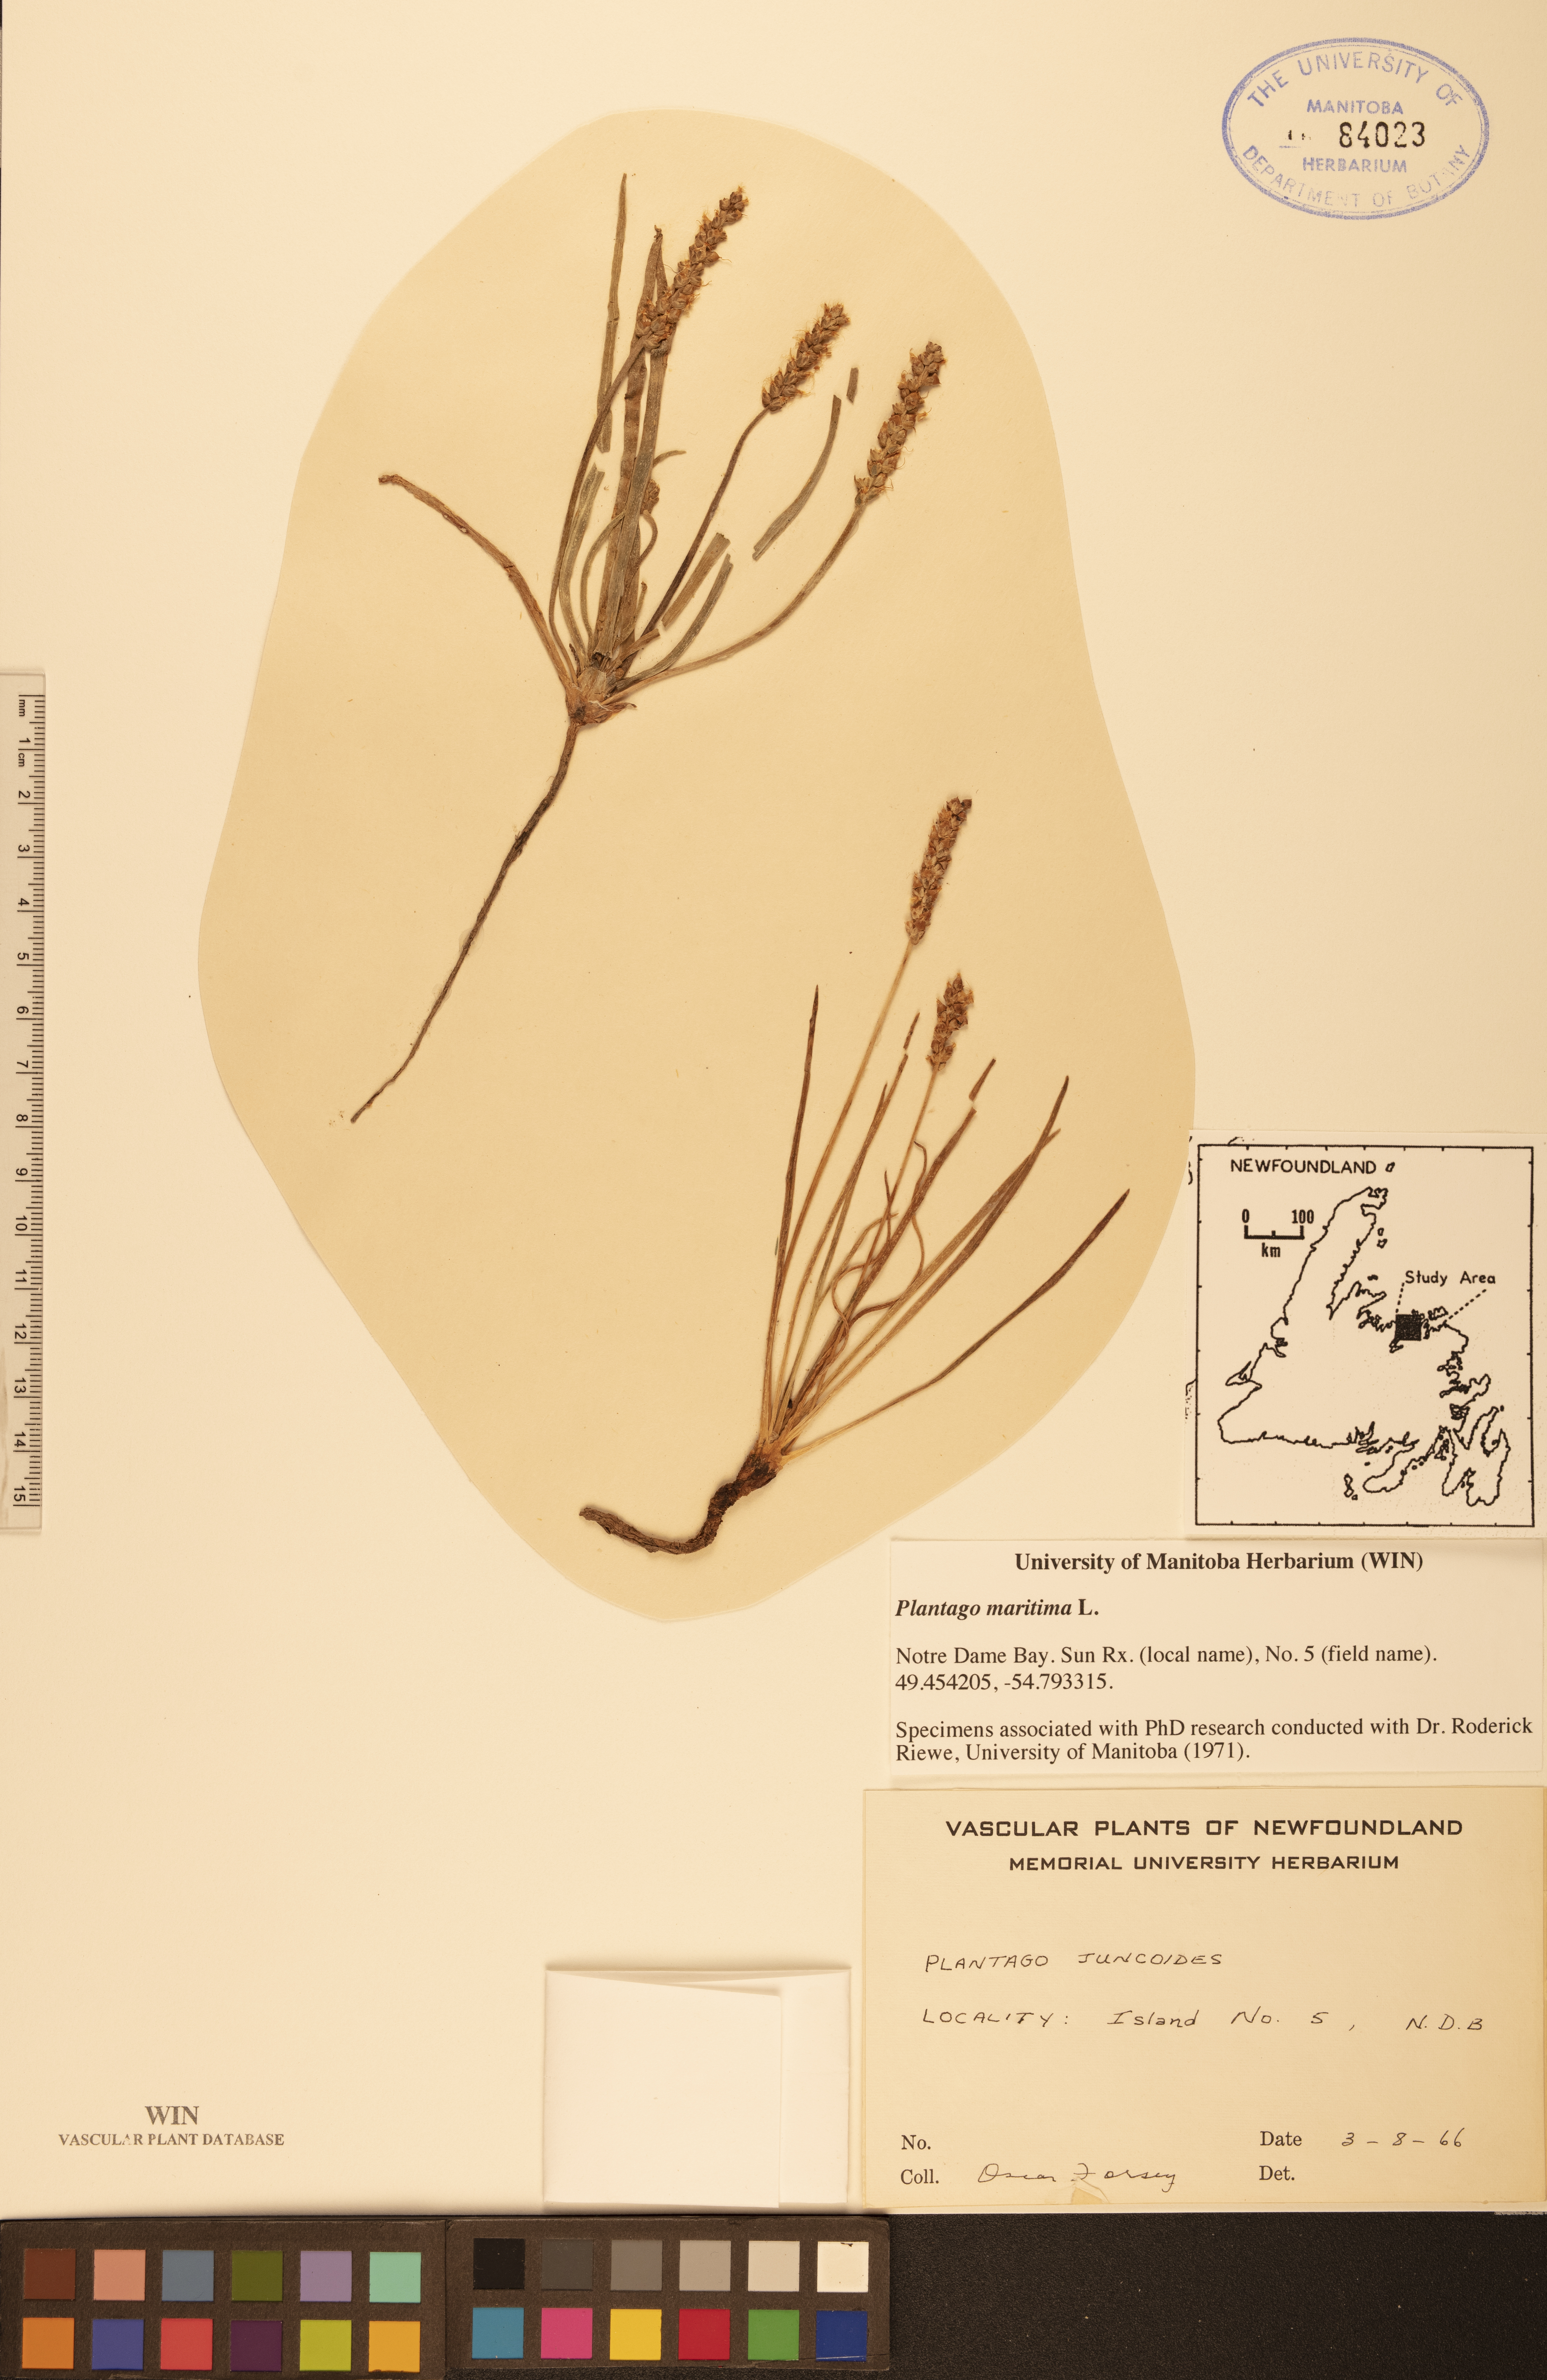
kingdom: Plantae
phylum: Tracheophyta
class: Magnoliopsida
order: Lamiales
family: Plantaginaceae
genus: Plantago
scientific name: Plantago crassifolia
